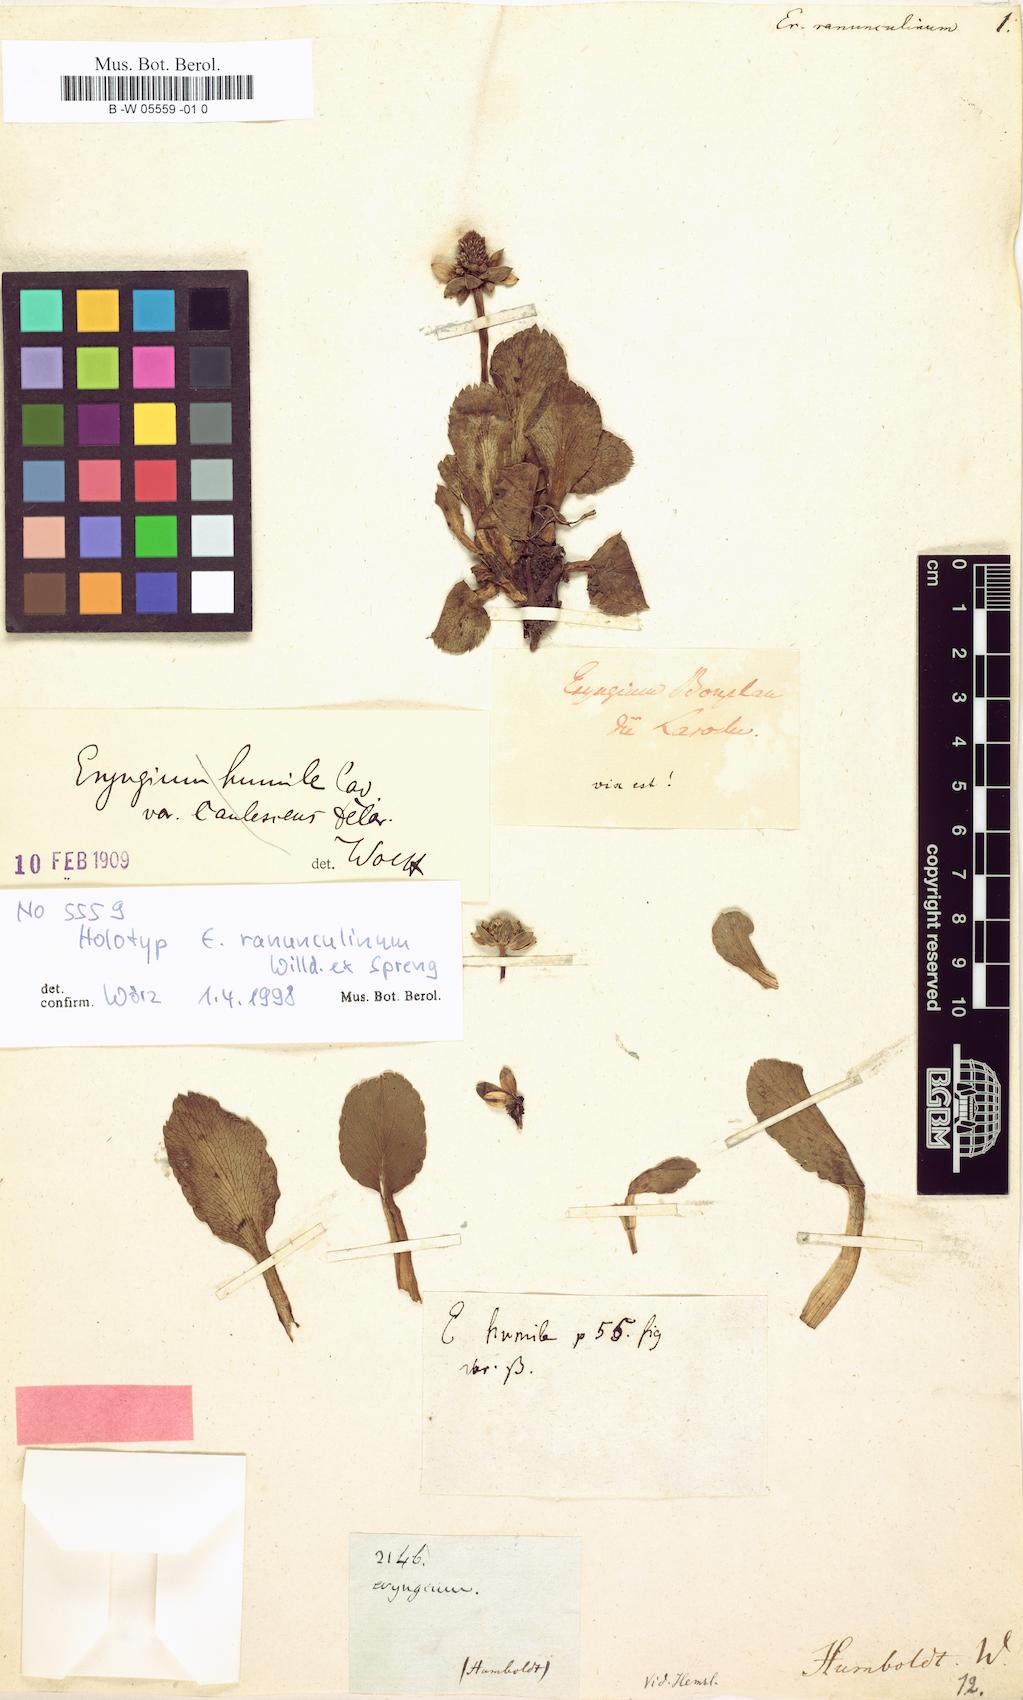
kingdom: Plantae
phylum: Tracheophyta
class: Magnoliopsida
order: Apiales
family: Apiaceae
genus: Eryngium
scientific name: Eryngium
